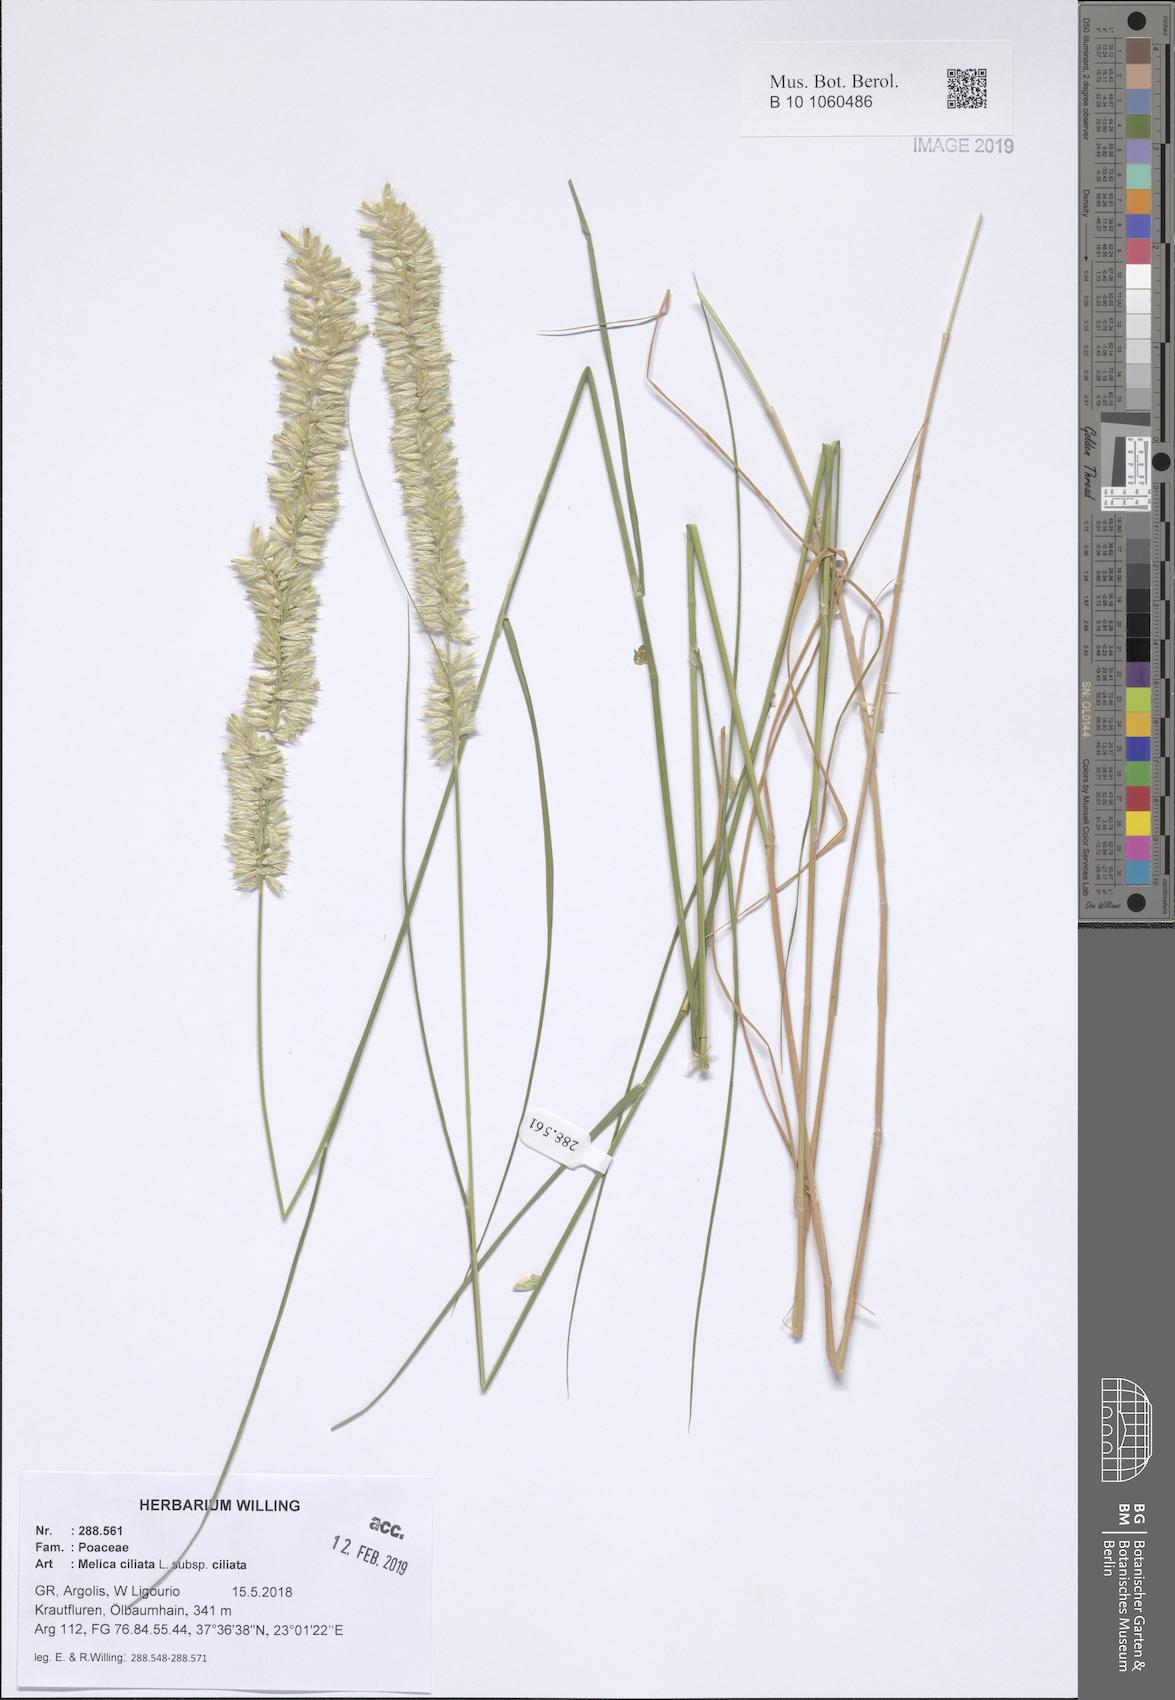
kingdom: Plantae
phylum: Tracheophyta
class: Liliopsida
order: Poales
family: Poaceae
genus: Melica
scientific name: Melica ciliata
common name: Hairy melicgrass
